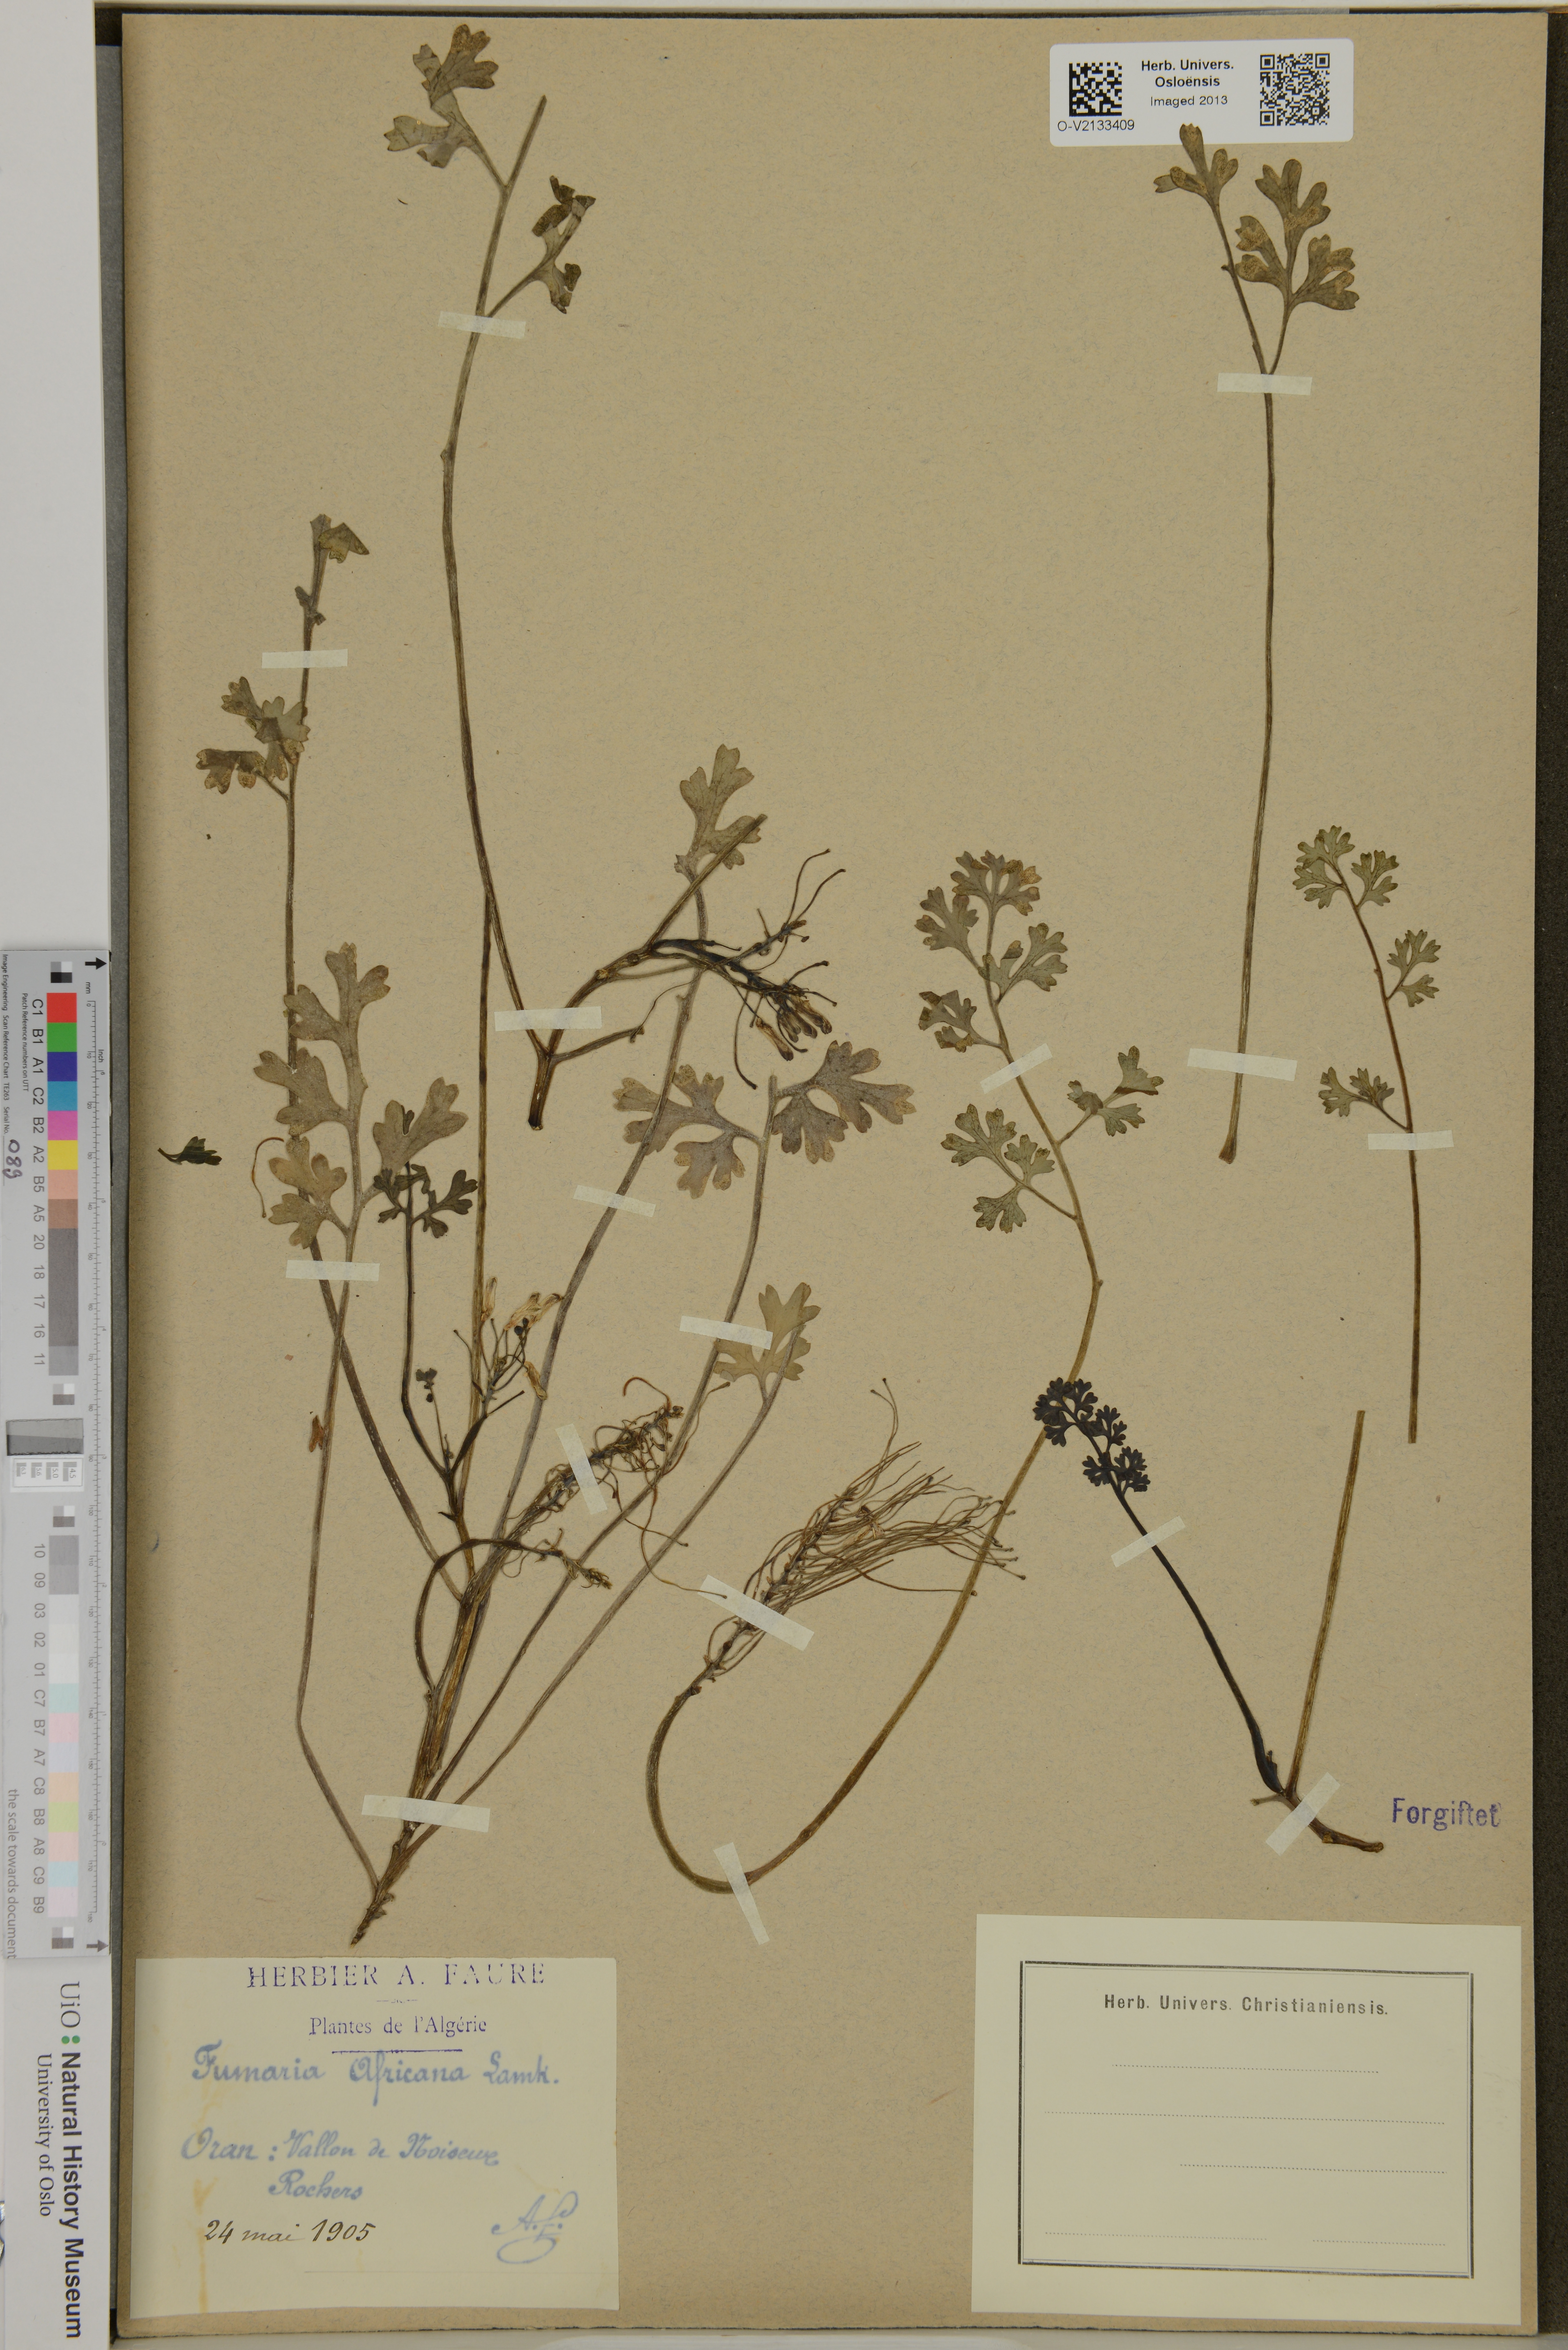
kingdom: Plantae
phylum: Tracheophyta
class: Magnoliopsida
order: Ranunculales
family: Papaveraceae
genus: Rupicapnos
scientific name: Rupicapnos africana
